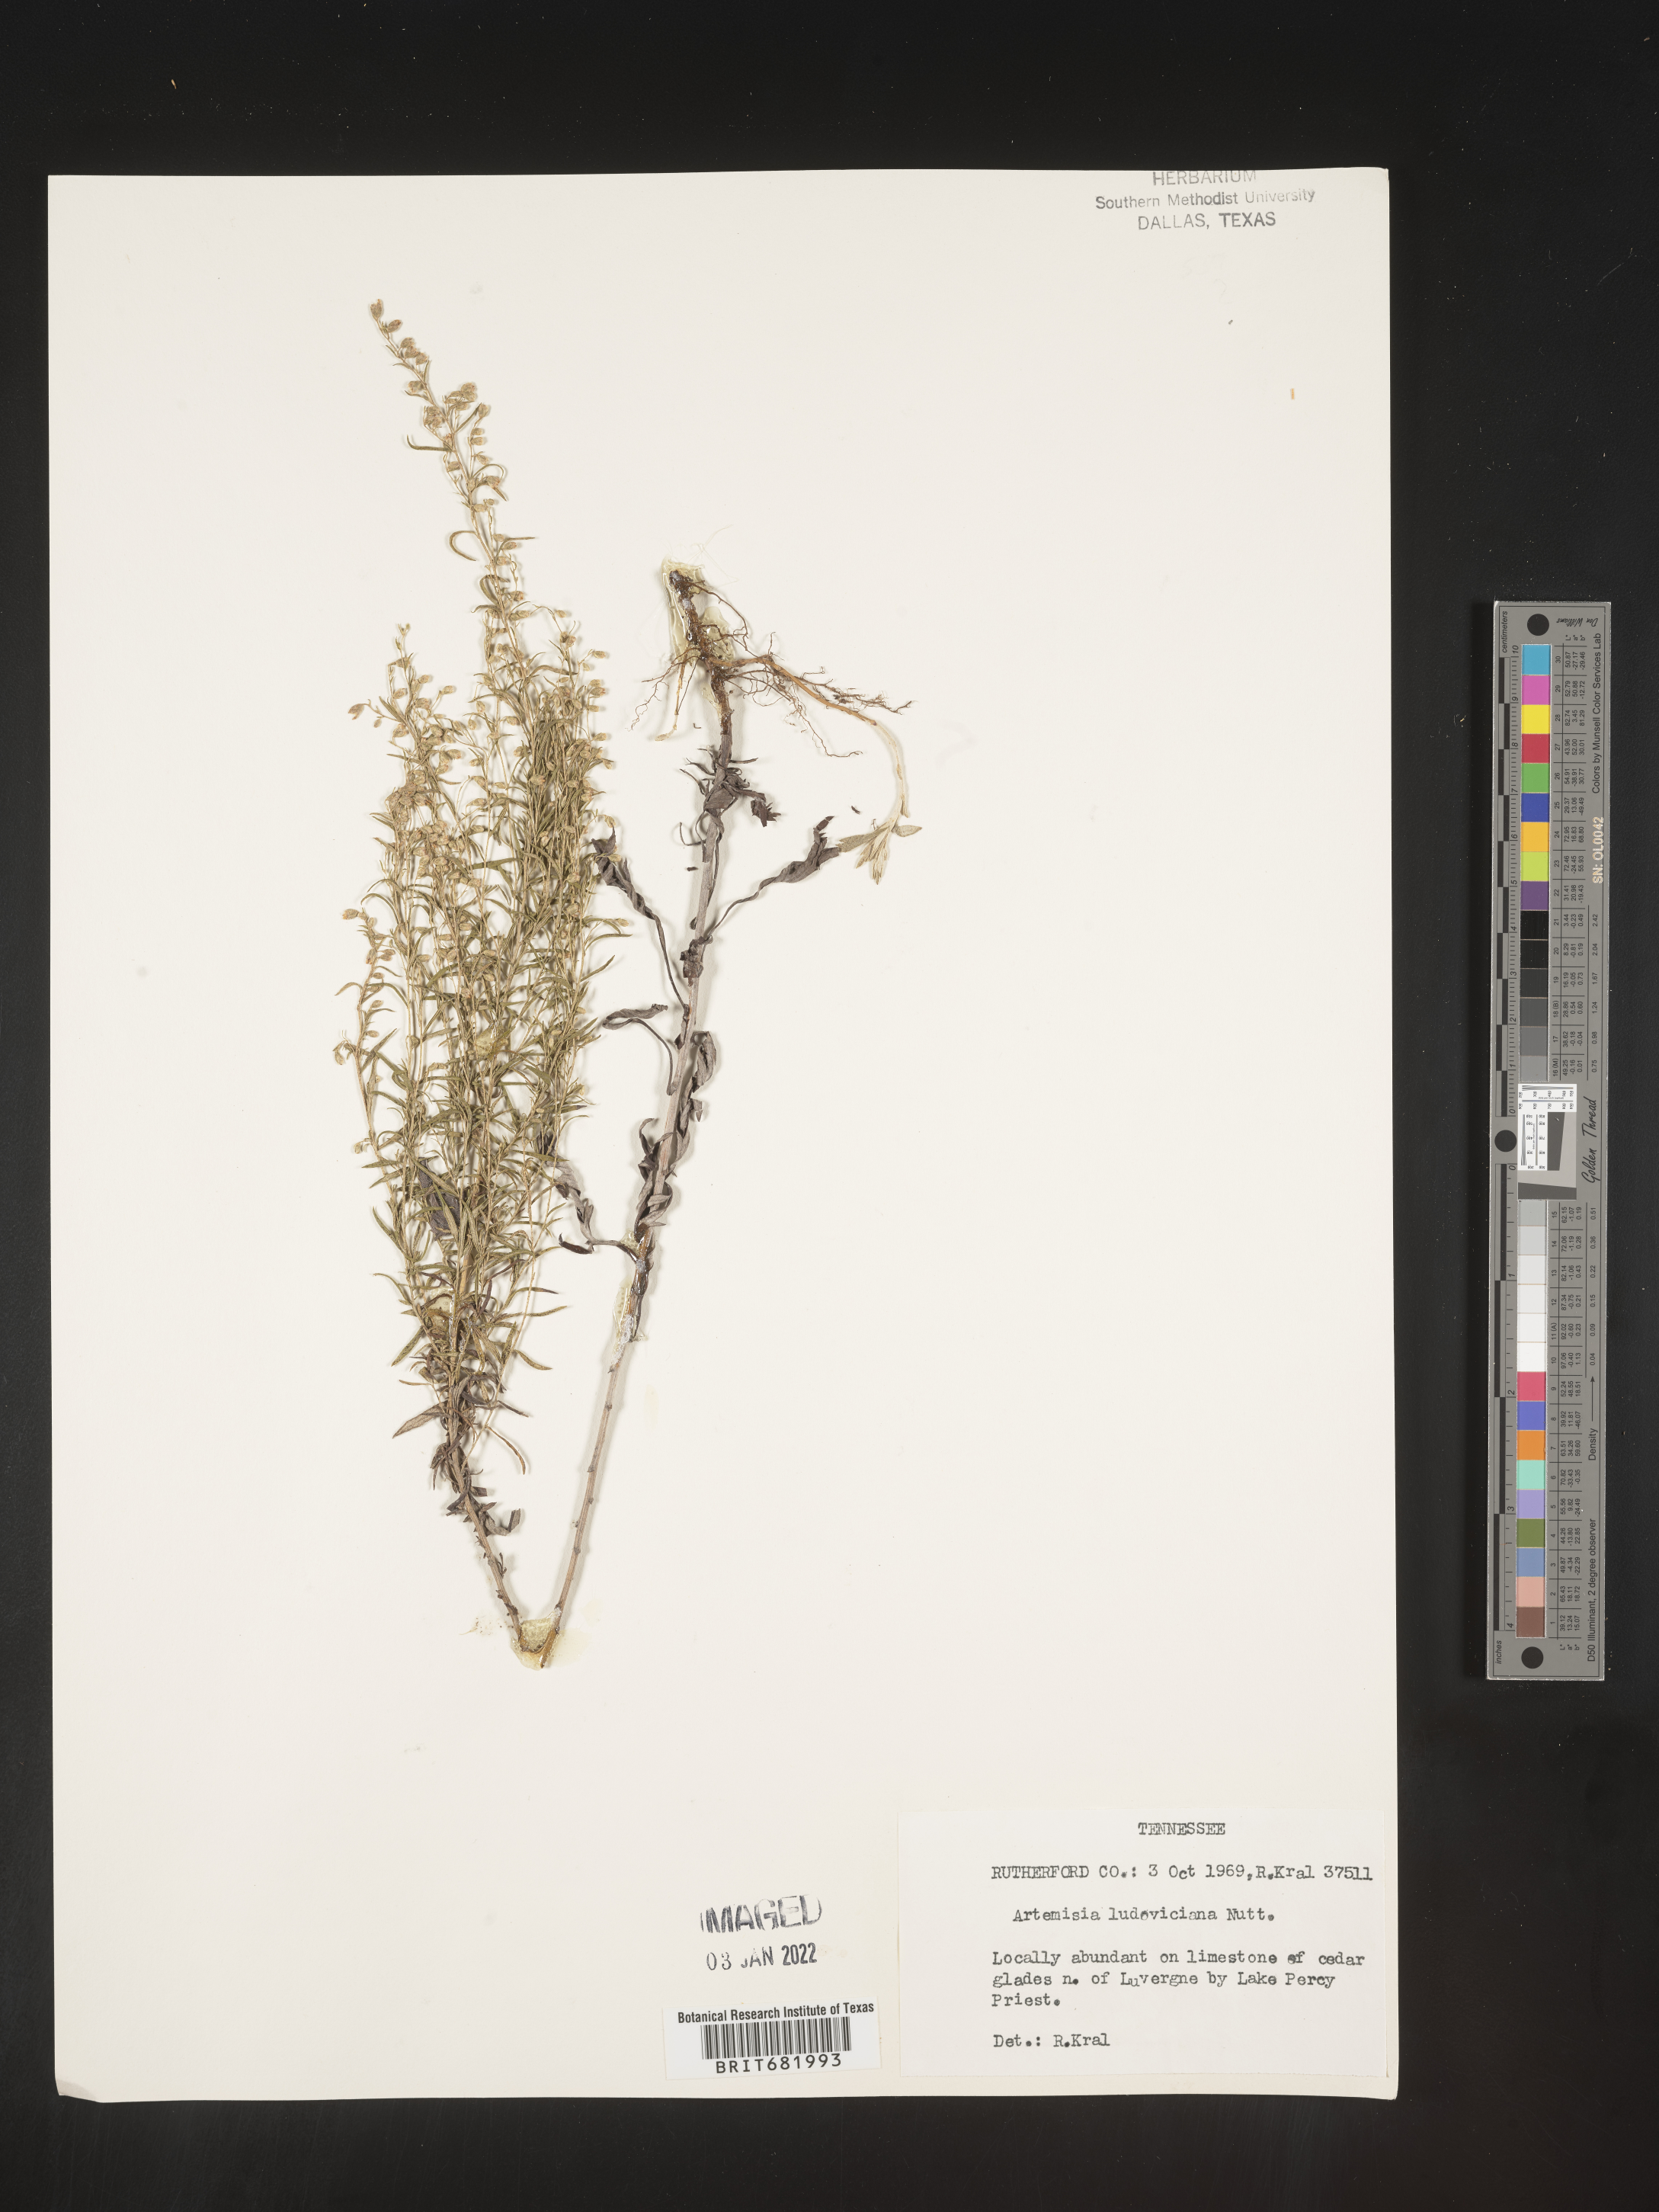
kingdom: Plantae
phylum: Tracheophyta
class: Magnoliopsida
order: Asterales
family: Asteraceae
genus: Artemisia
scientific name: Artemisia ludoviciana
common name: Western mugwort
